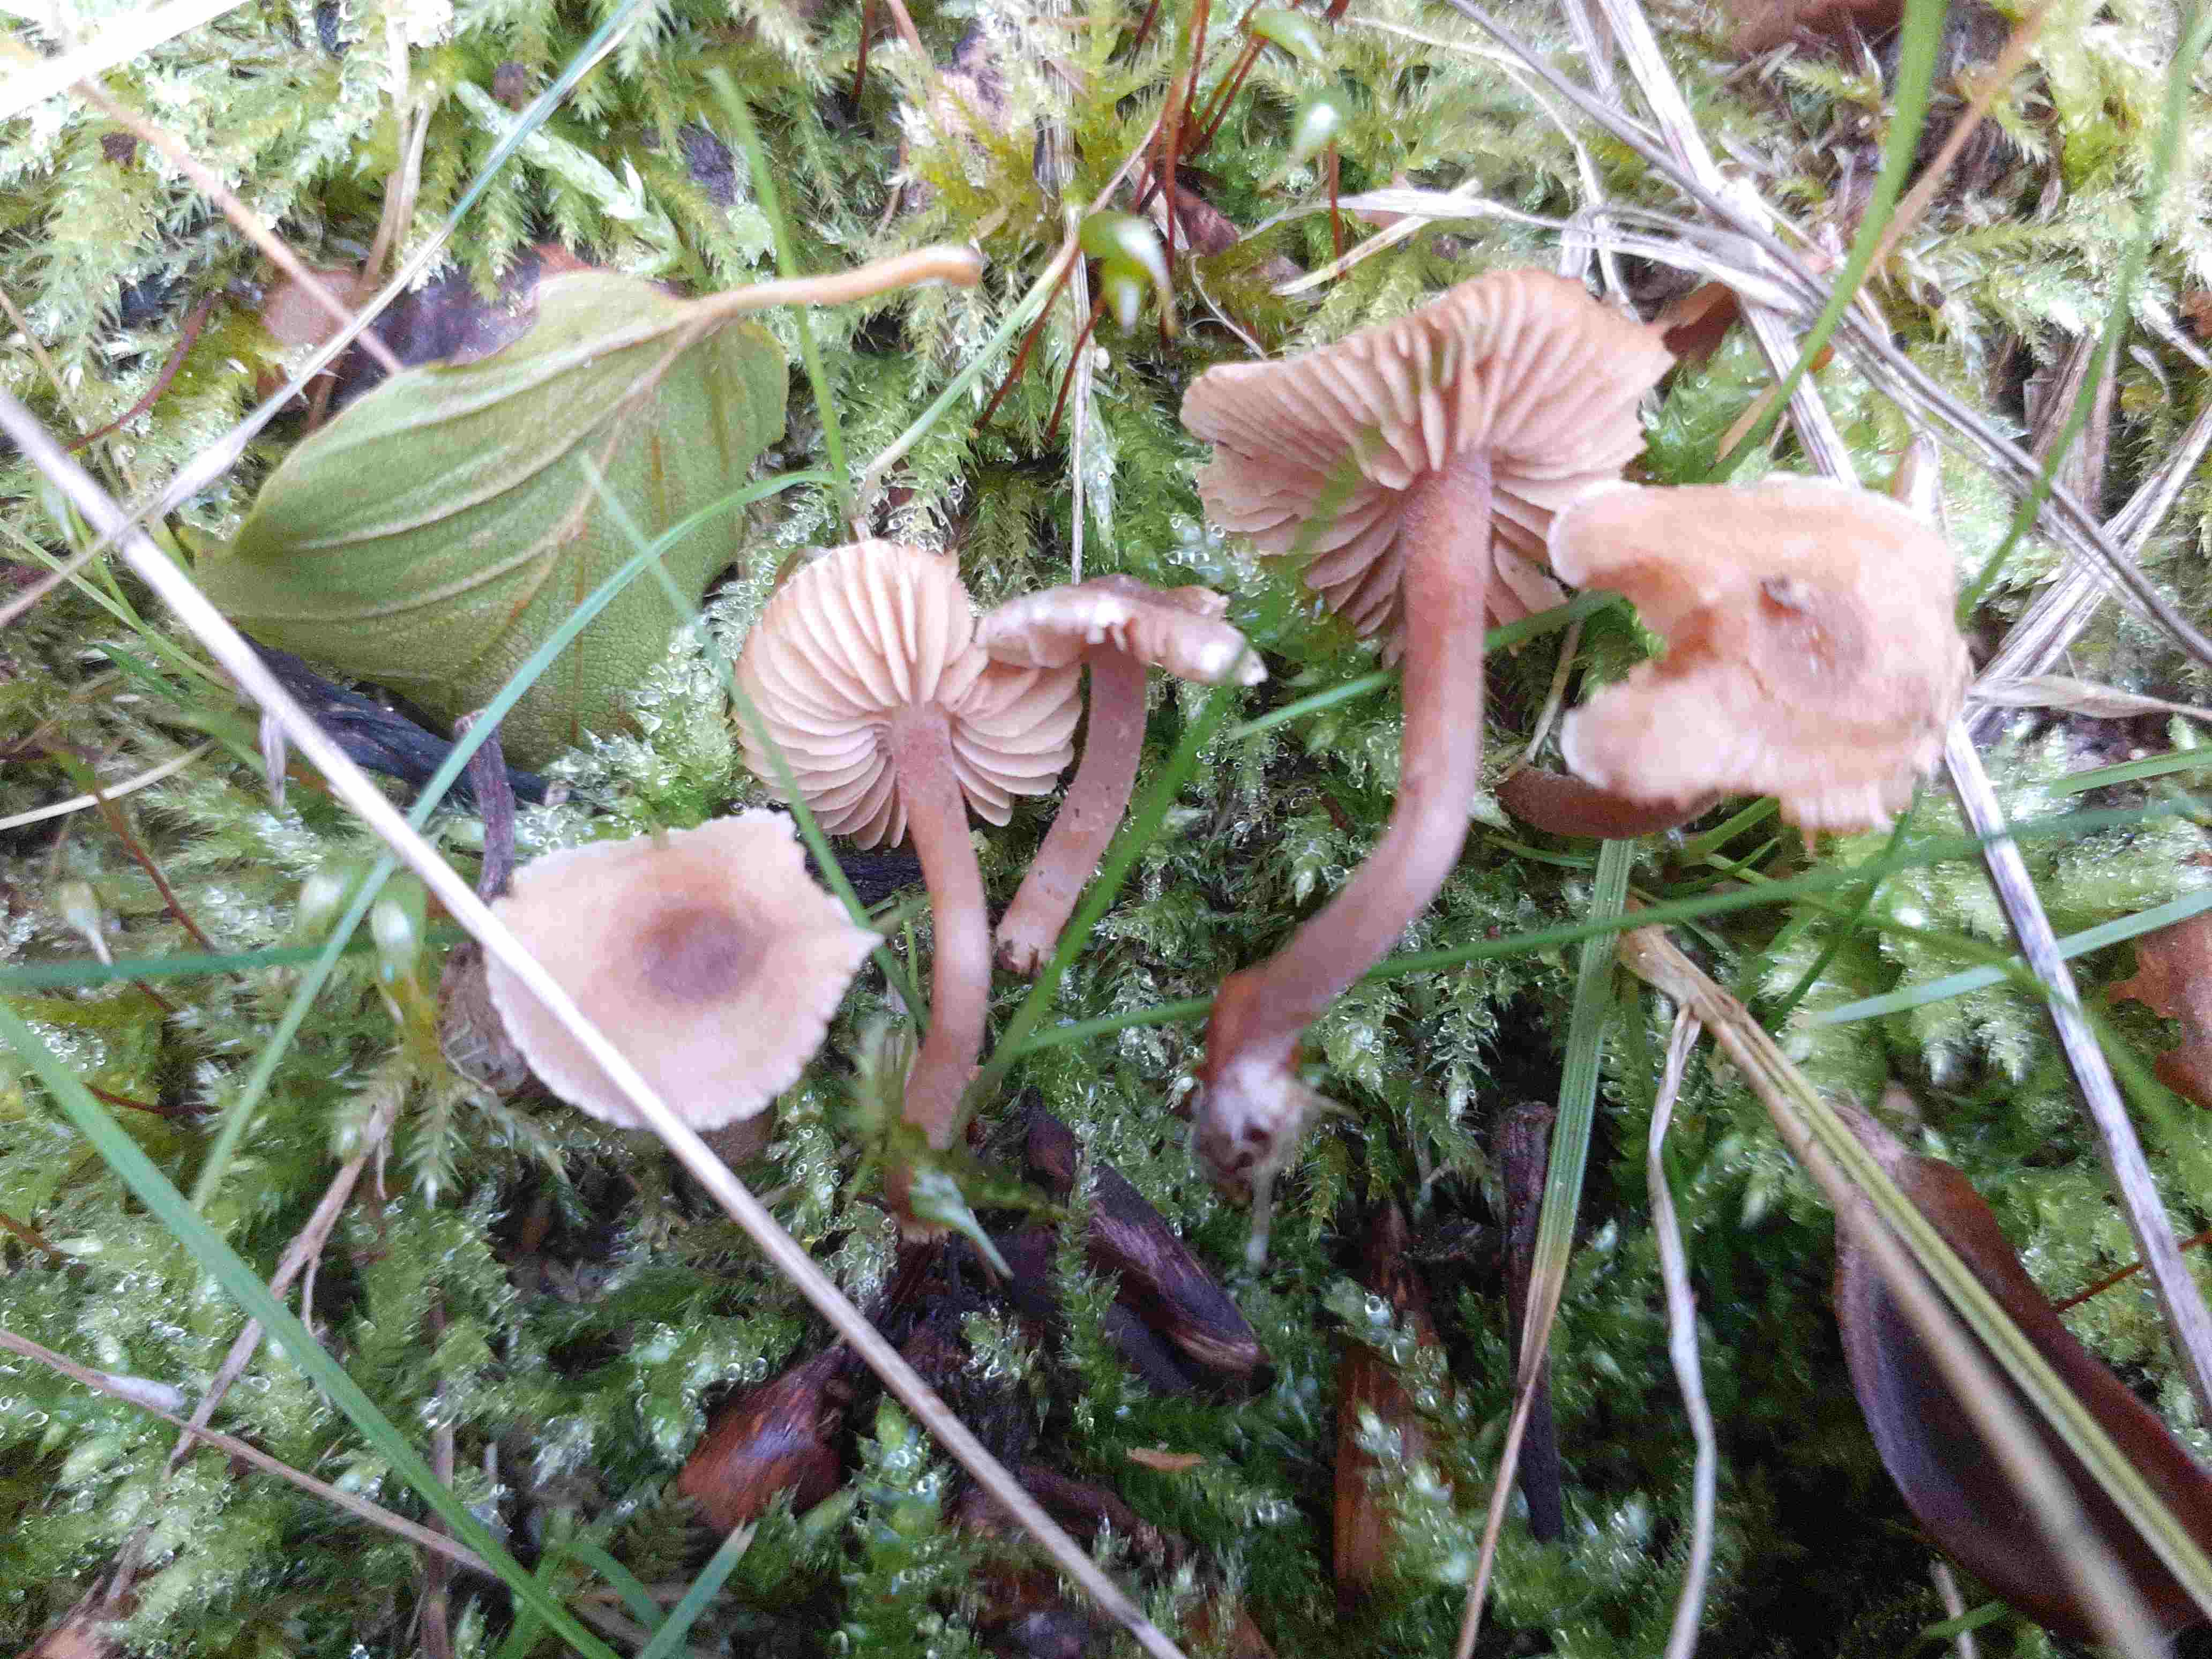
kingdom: Fungi
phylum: Basidiomycota
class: Agaricomycetes
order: Agaricales
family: Inocybaceae
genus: Inocybe
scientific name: Inocybe petiginosa
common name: liden trævlhat
